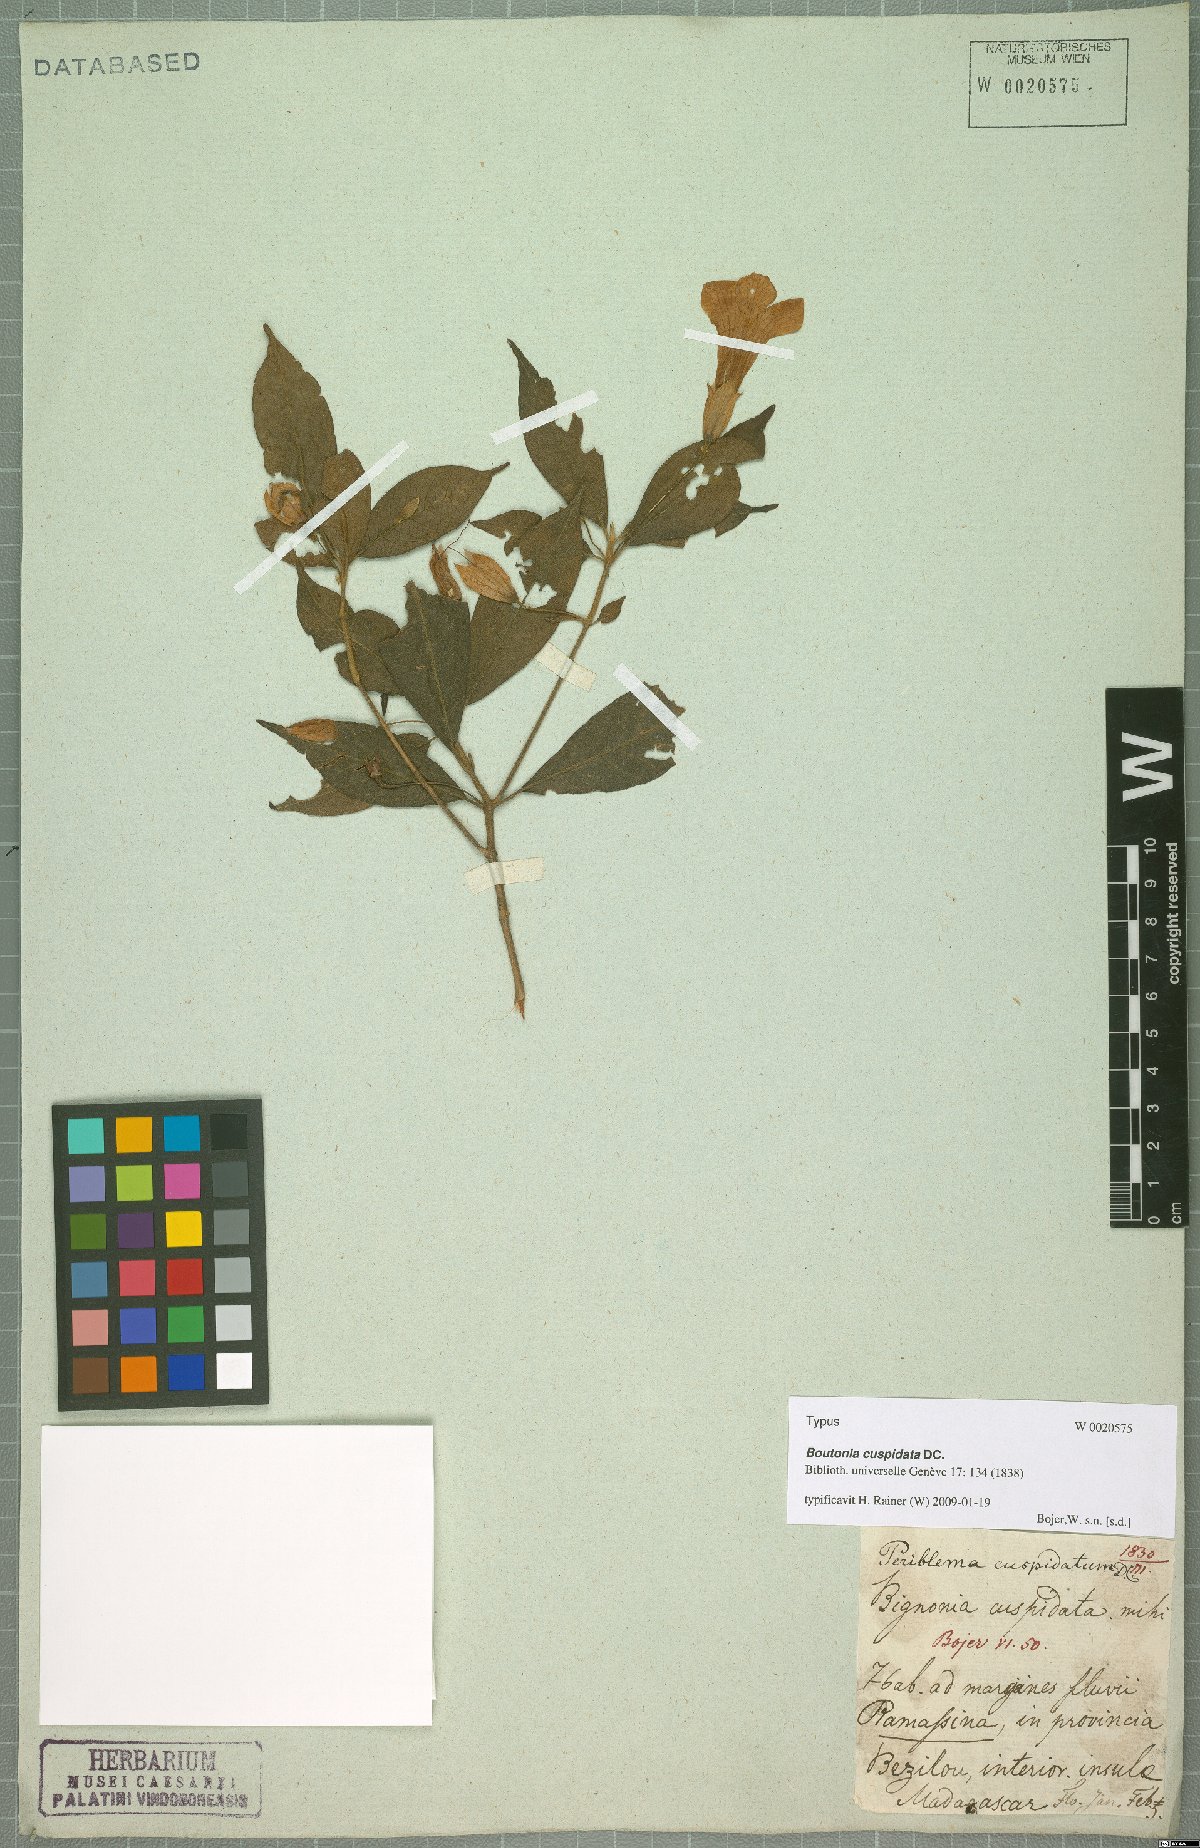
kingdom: Plantae
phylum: Tracheophyta
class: Magnoliopsida
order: Lamiales
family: Acanthaceae
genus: Boutonia
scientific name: Boutonia cuspidata
